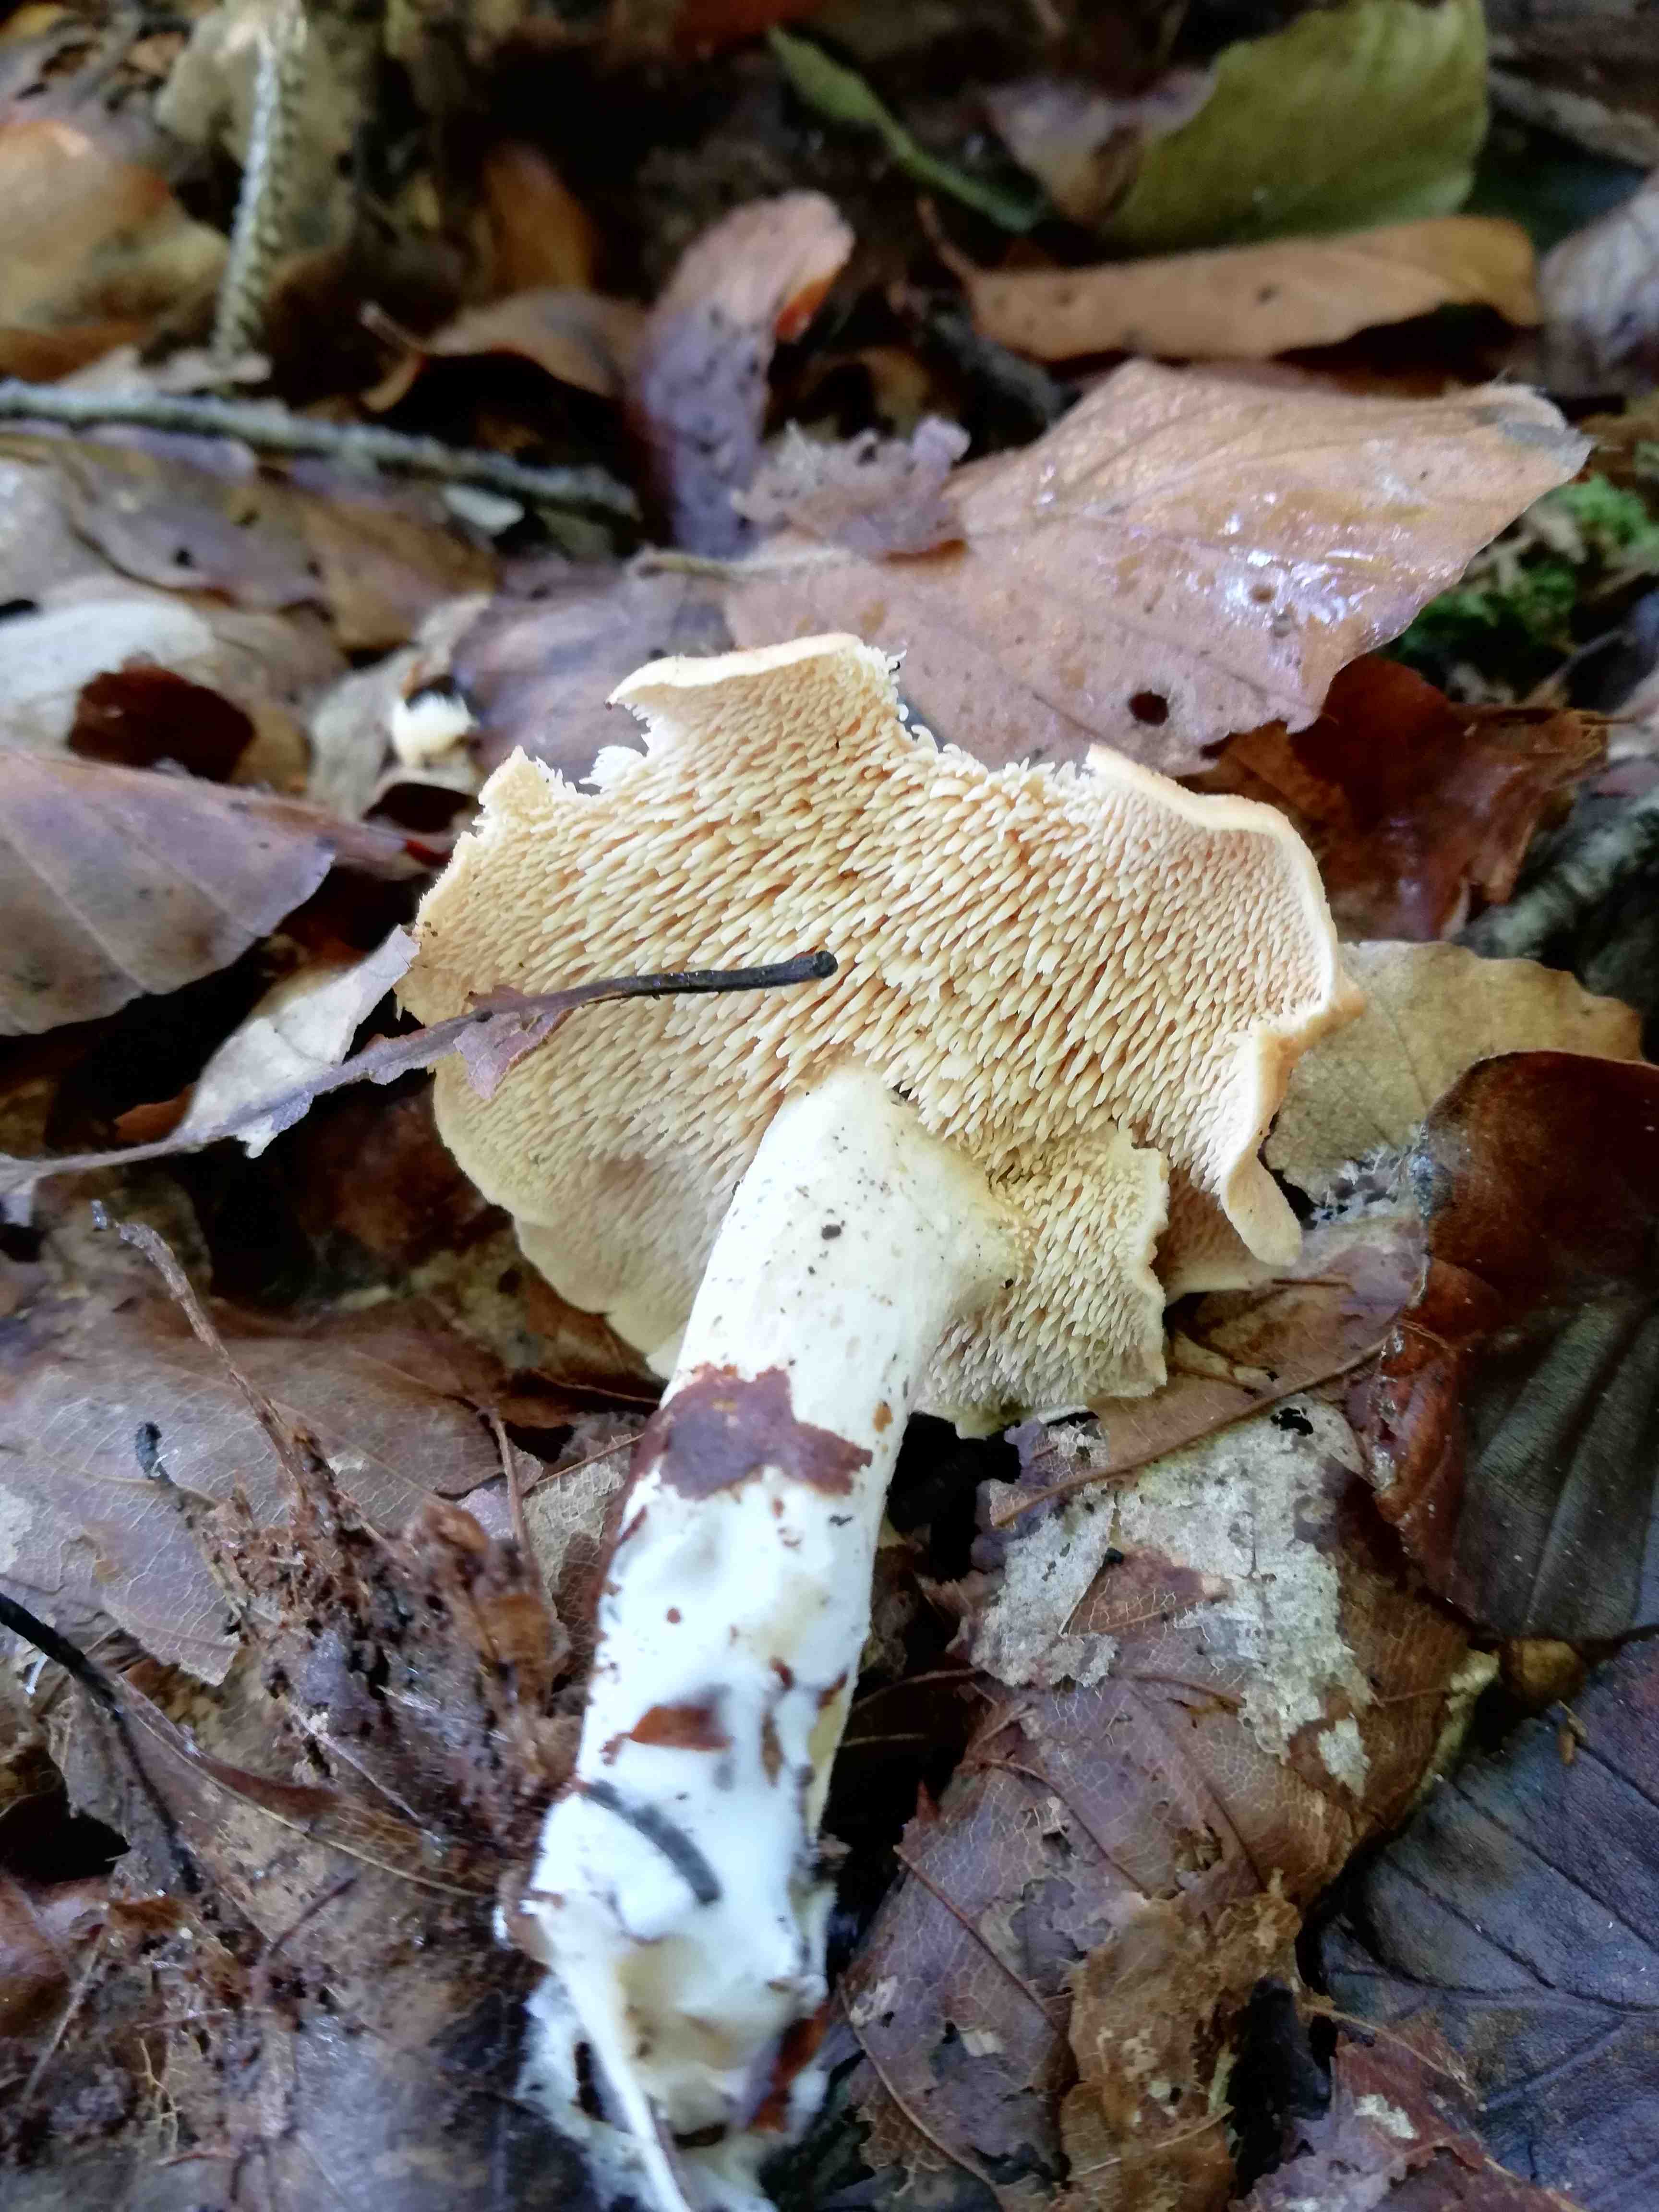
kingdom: Fungi
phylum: Basidiomycota
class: Agaricomycetes
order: Cantharellales
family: Hydnaceae
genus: Hydnum
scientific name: Hydnum
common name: pigsvamp
